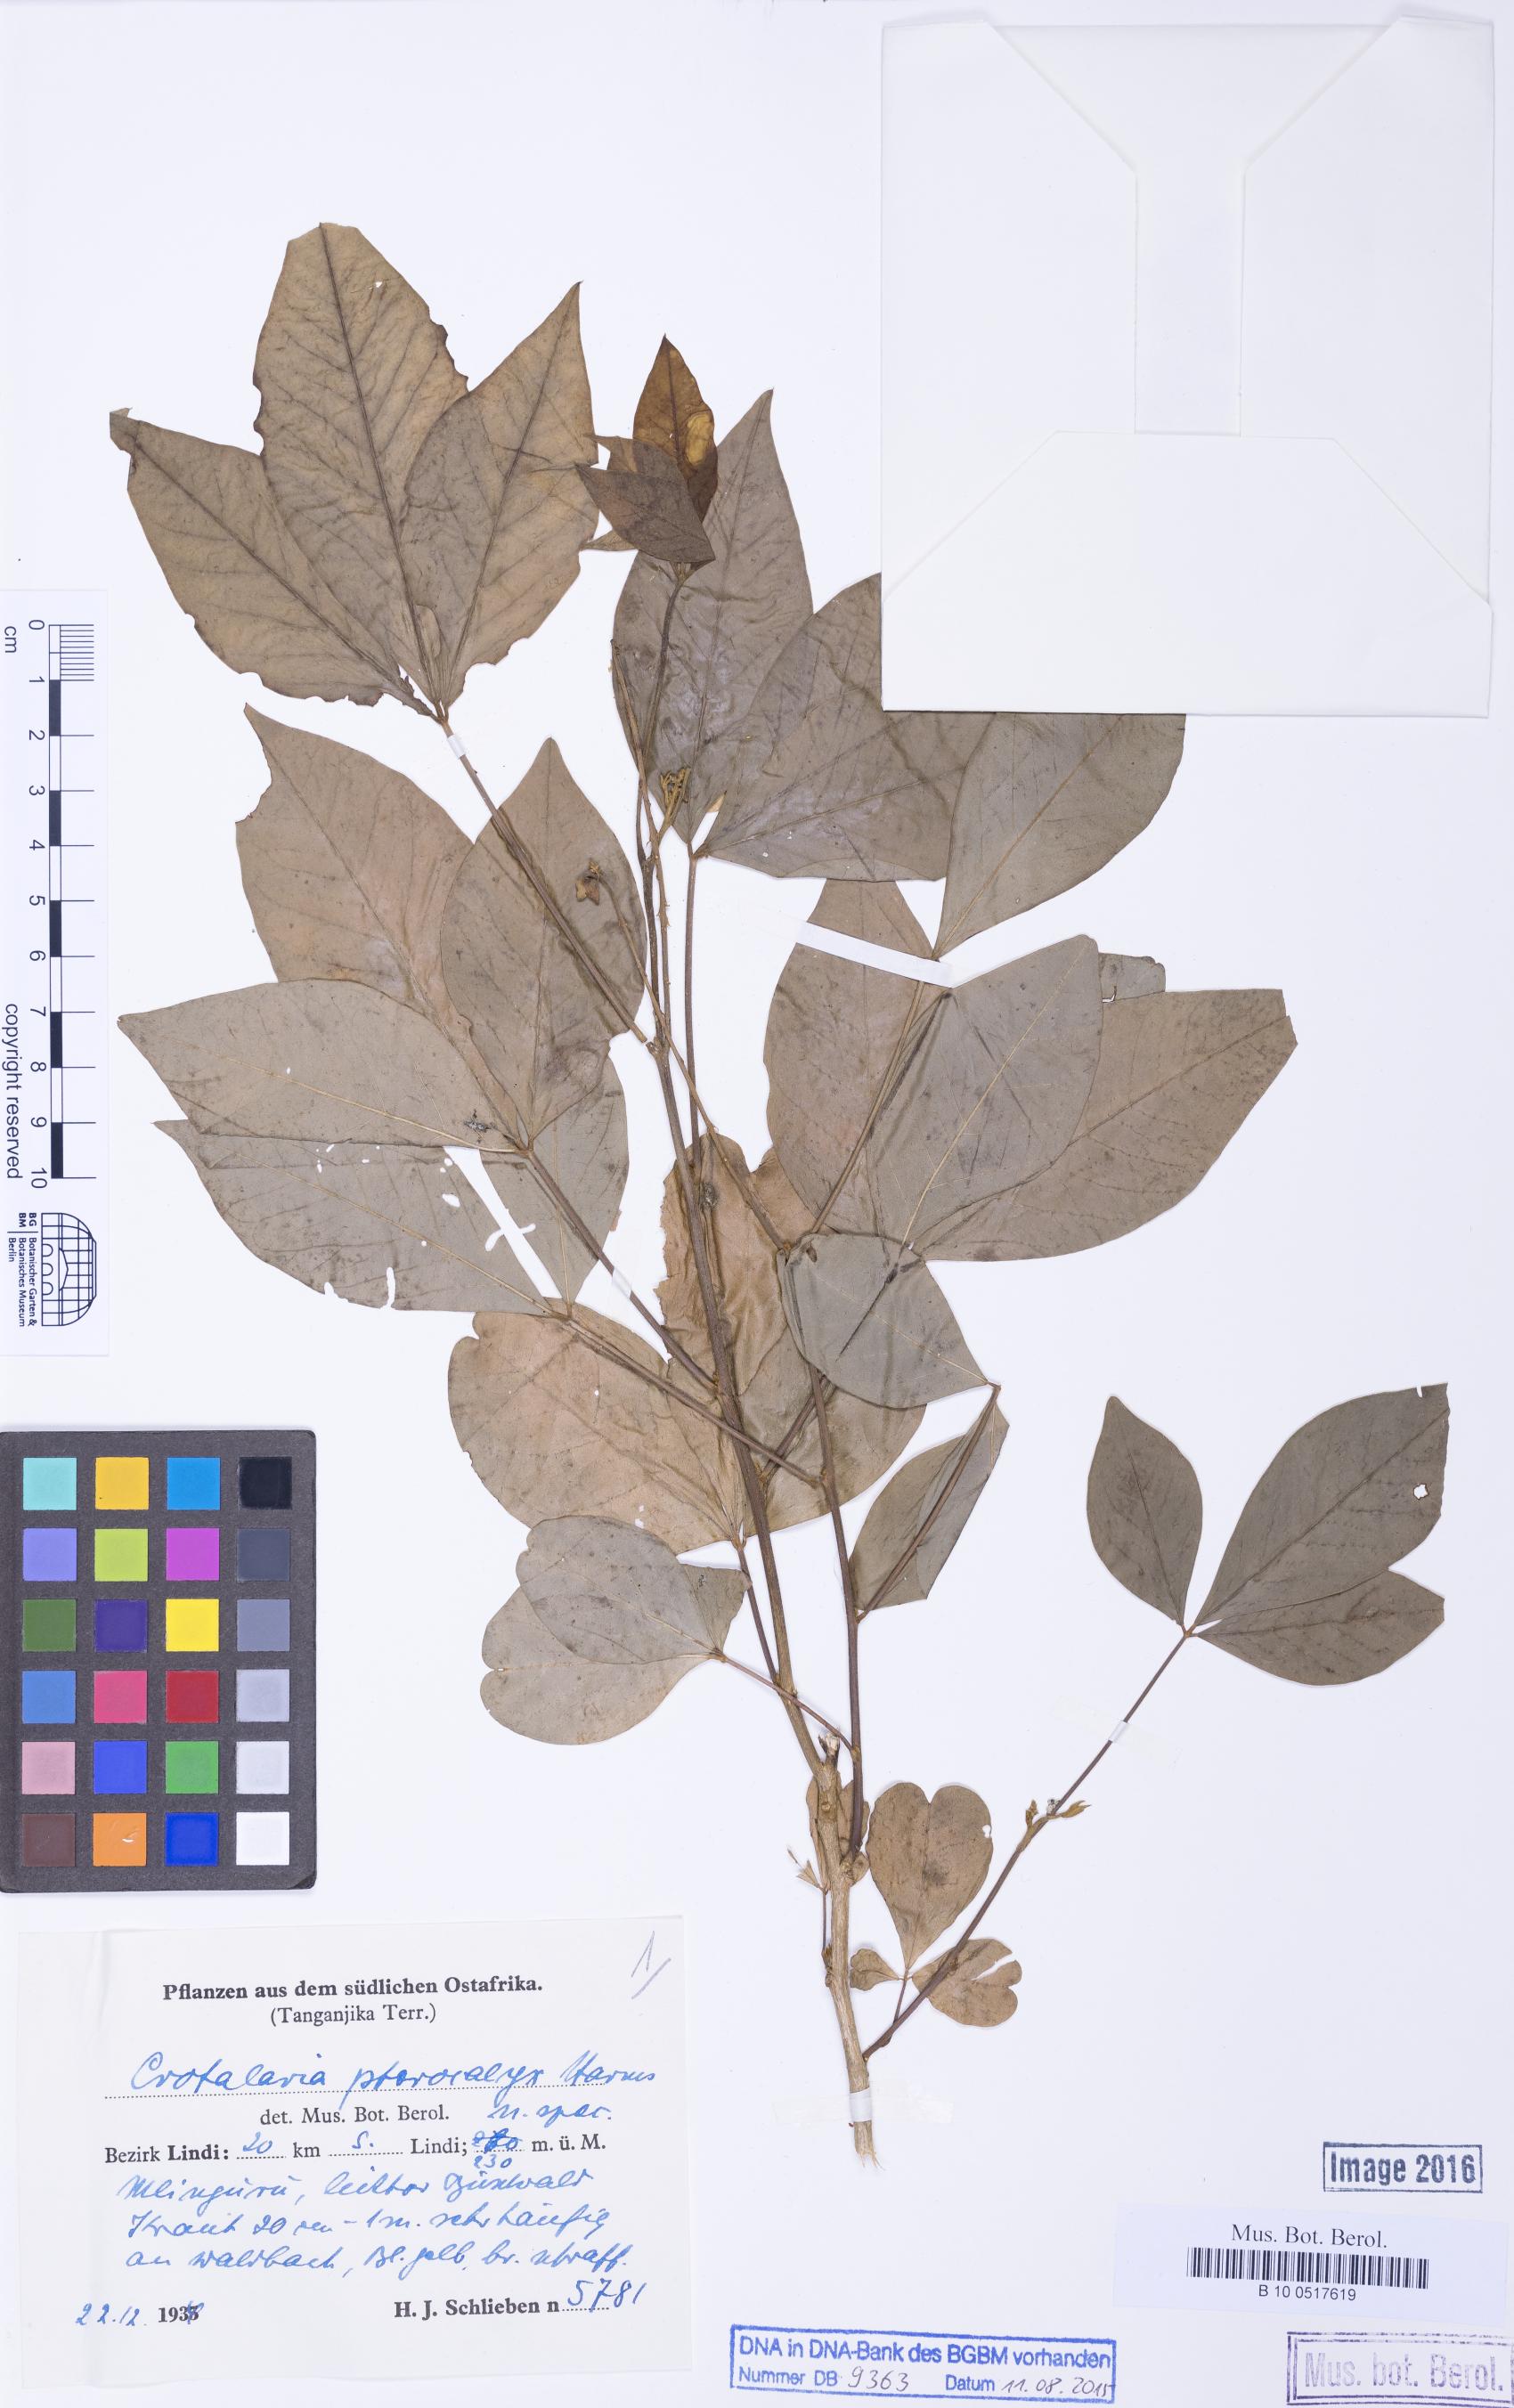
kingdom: Plantae
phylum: Tracheophyta
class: Magnoliopsida
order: Fabales
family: Fabaceae
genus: Crotalaria
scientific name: Crotalaria pterocalyx
